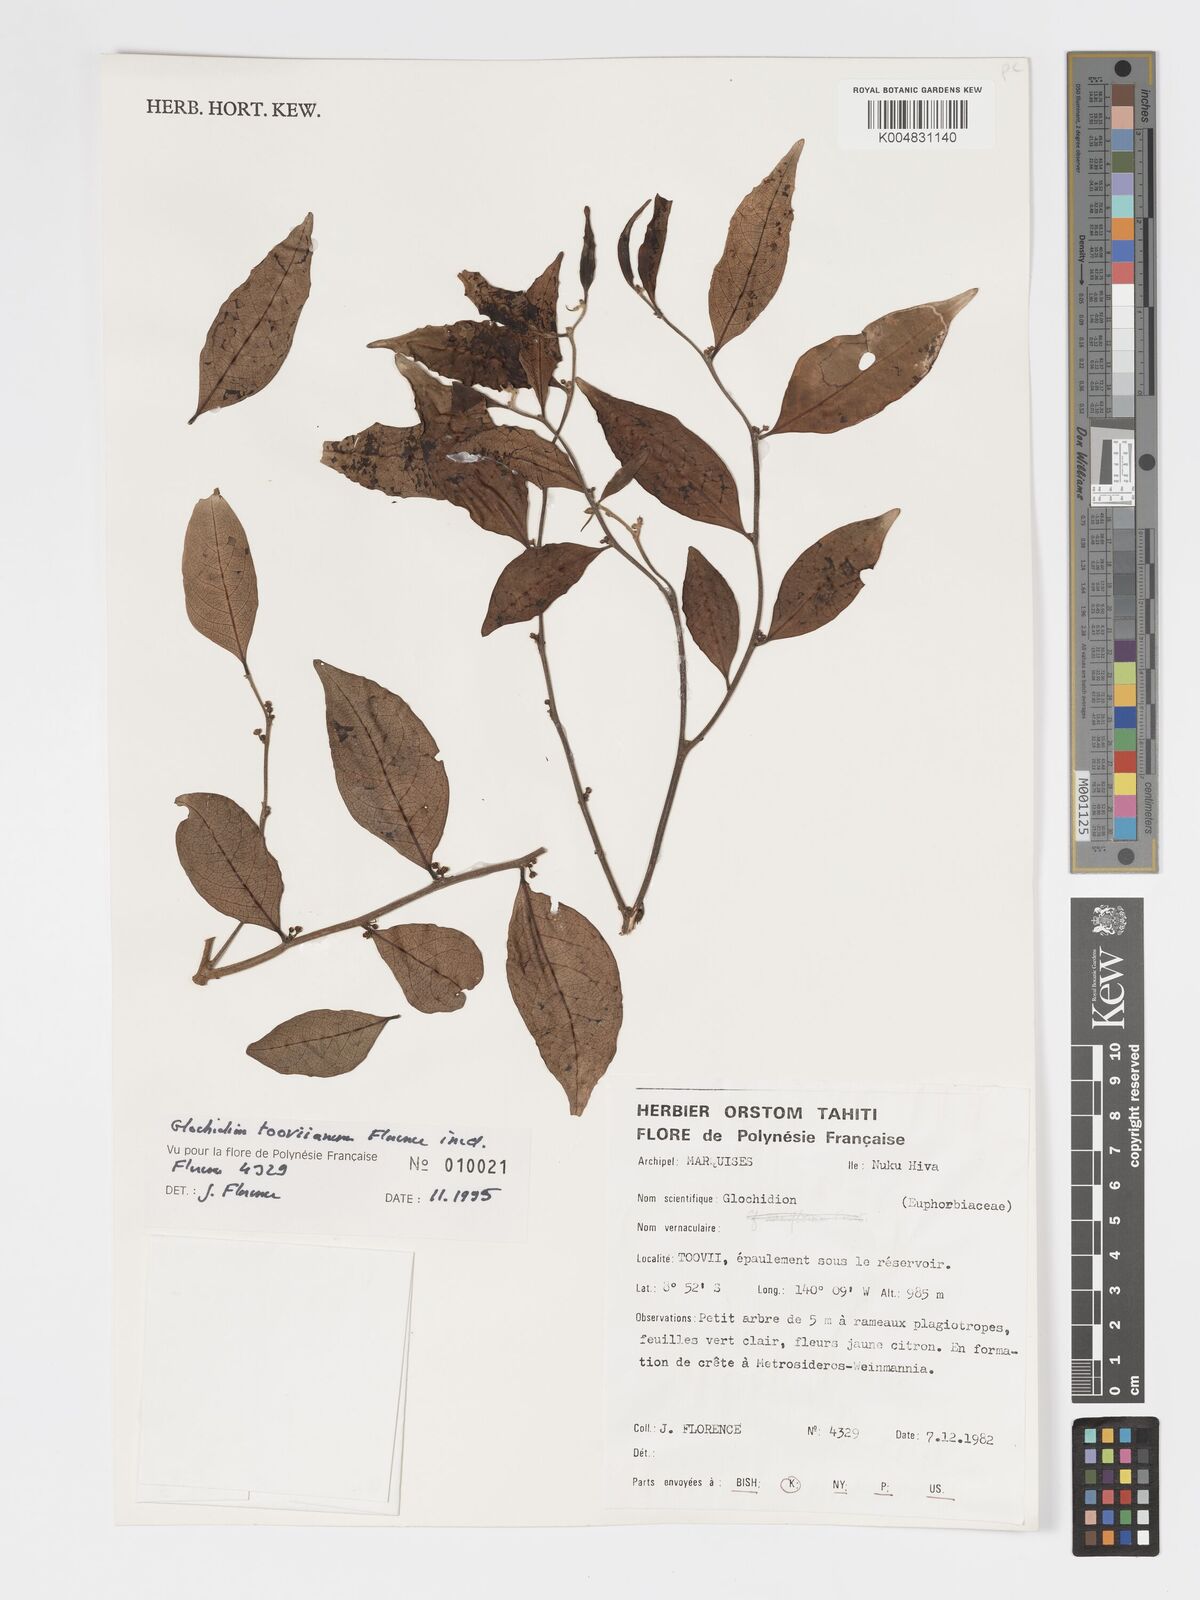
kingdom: Plantae
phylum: Tracheophyta
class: Magnoliopsida
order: Malpighiales
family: Phyllanthaceae
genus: Glochidion
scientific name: Glochidion marchionicum
